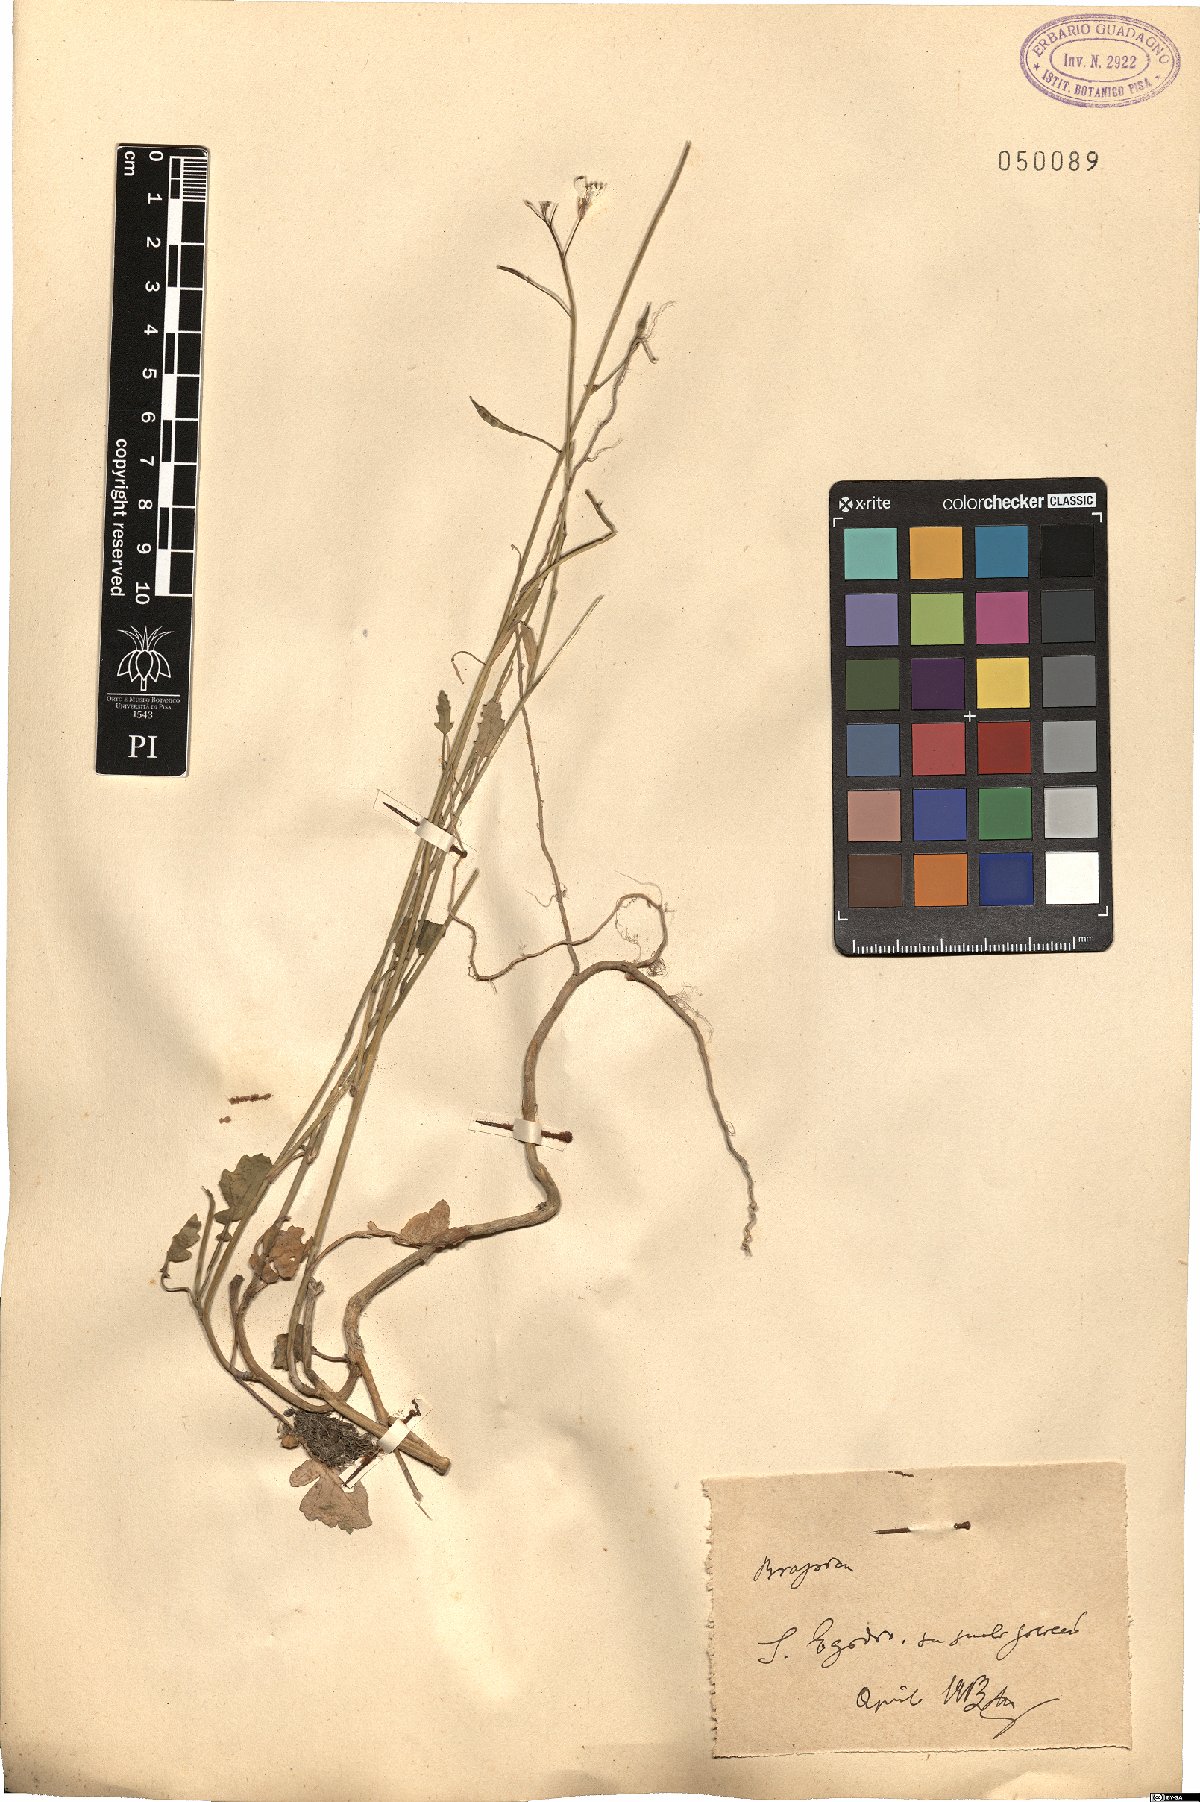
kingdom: Plantae
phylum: Tracheophyta
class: Magnoliopsida
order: Brassicales
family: Brassicaceae
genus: Brassica
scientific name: Brassica
